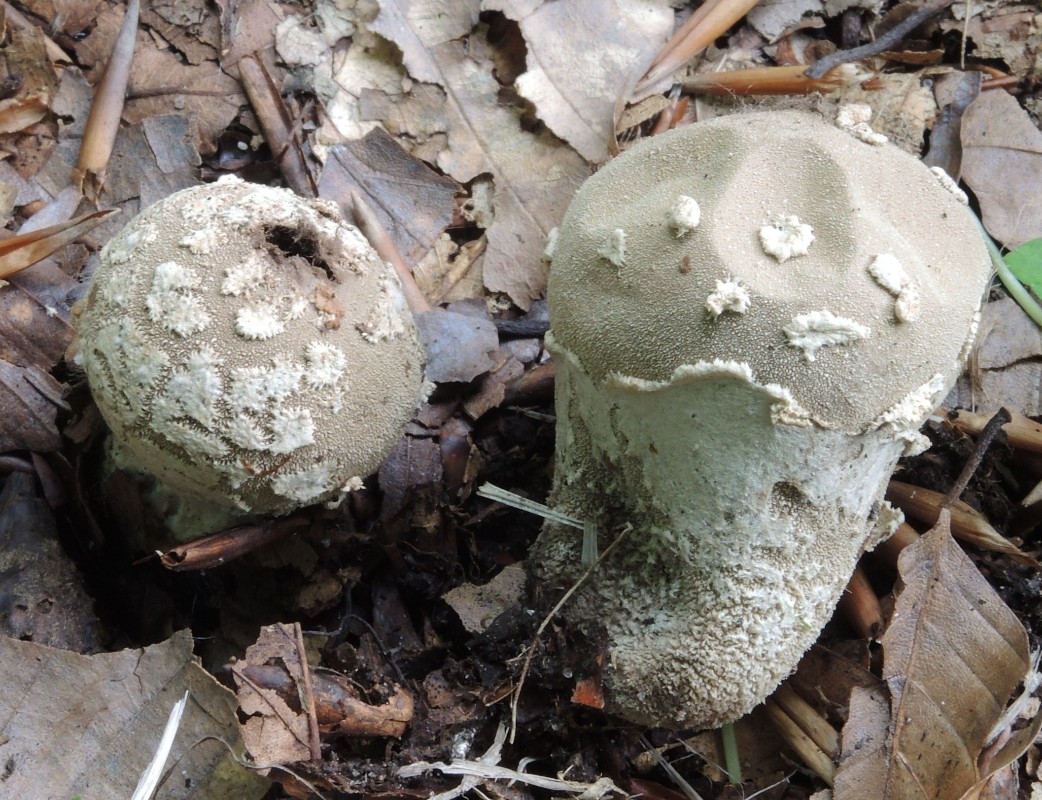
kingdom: Fungi
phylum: Basidiomycota
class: Agaricomycetes
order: Agaricales
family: Lycoperdaceae
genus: Lycoperdon
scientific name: Lycoperdon mammiforme
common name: rosa støvbold
